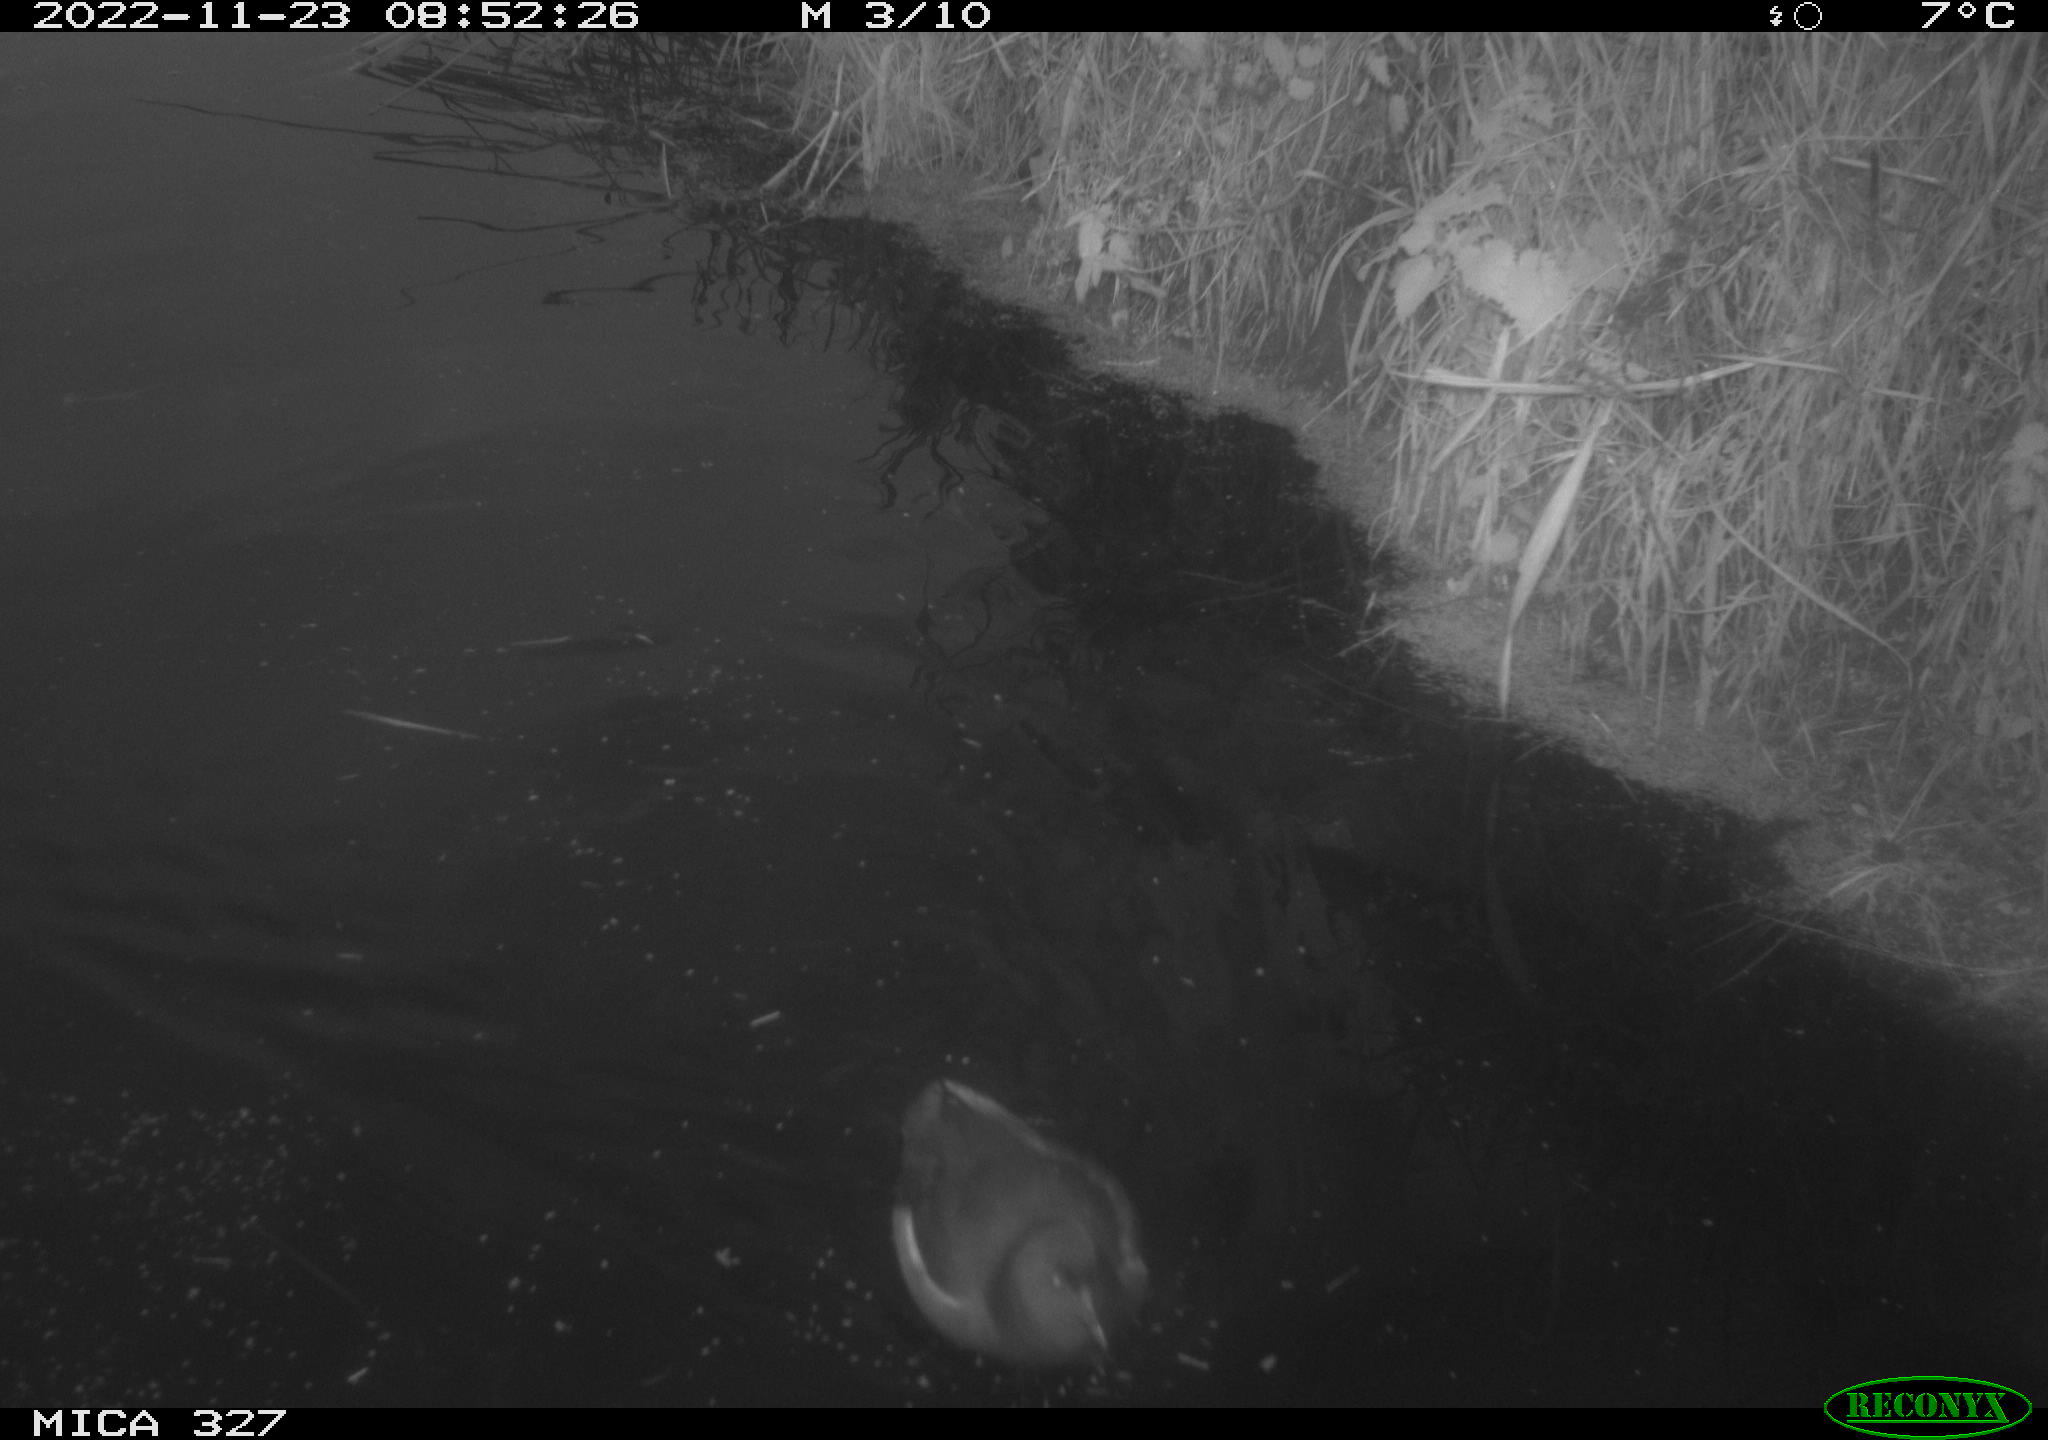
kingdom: Animalia
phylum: Chordata
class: Aves
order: Gruiformes
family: Rallidae
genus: Gallinula
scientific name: Gallinula chloropus
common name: Common moorhen
